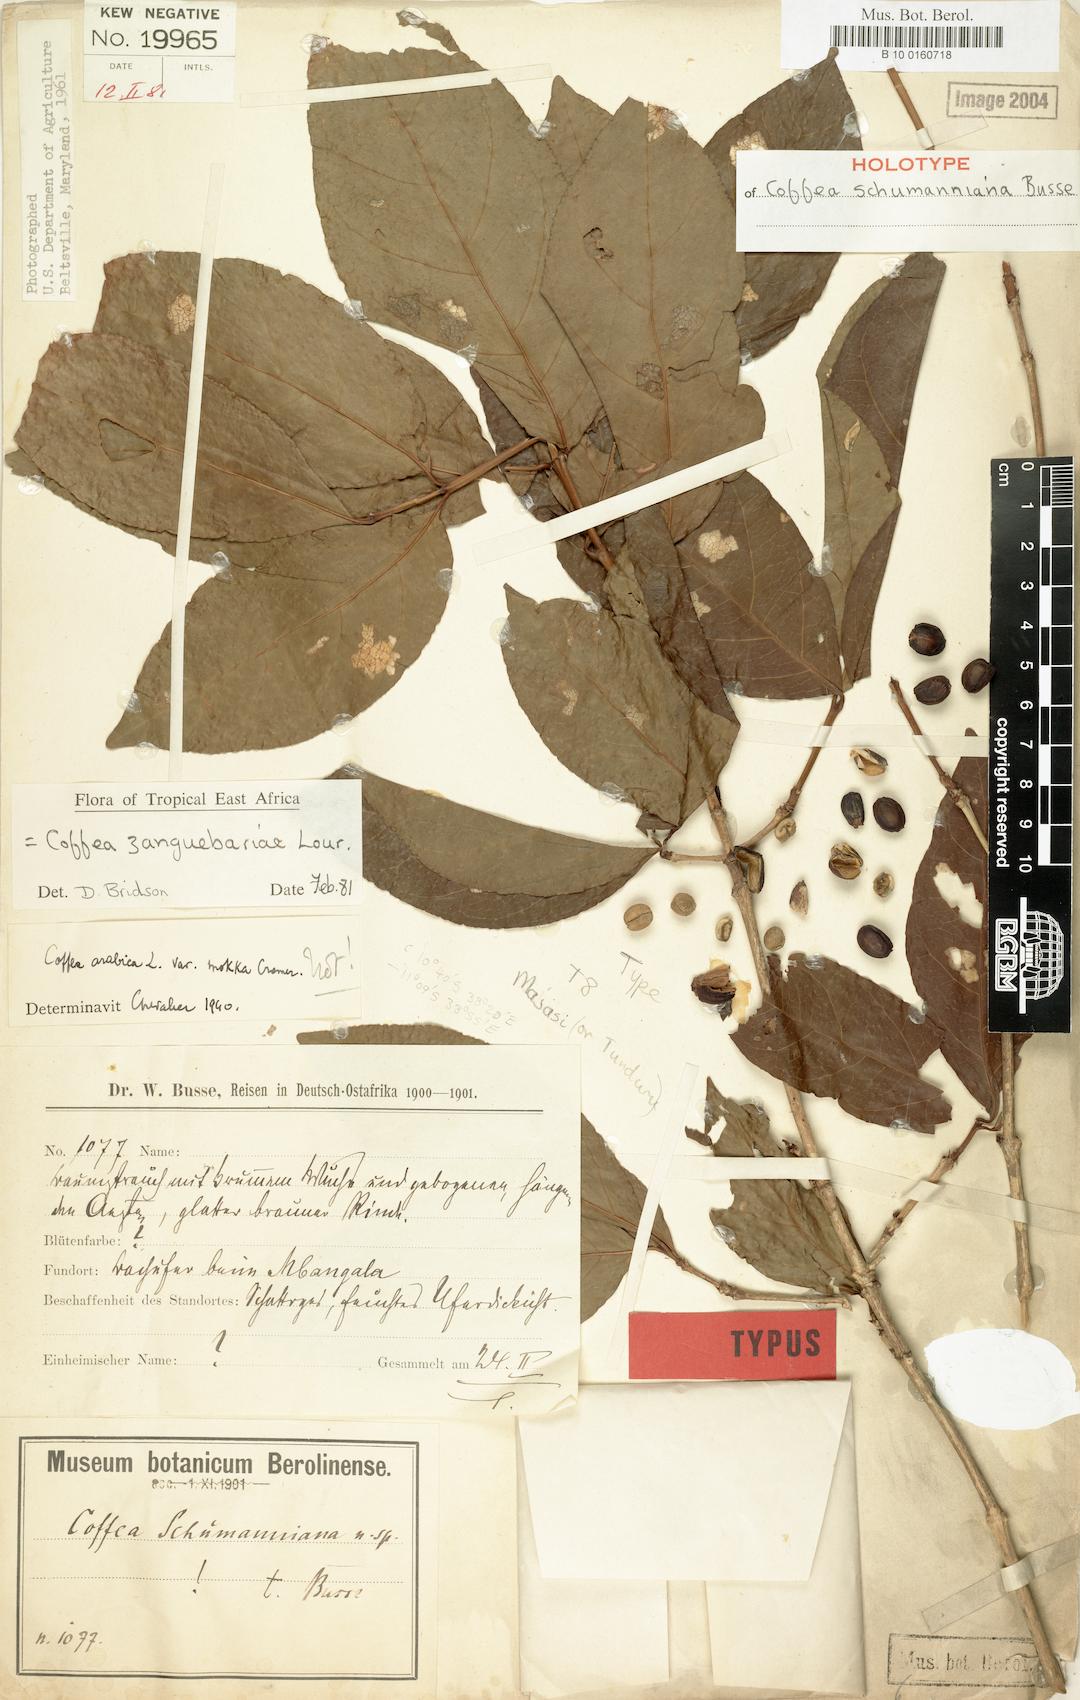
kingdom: Plantae
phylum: Tracheophyta
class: Magnoliopsida
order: Gentianales
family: Rubiaceae
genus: Coffea
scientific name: Coffea zanguebariae
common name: Zanzibar coffee
